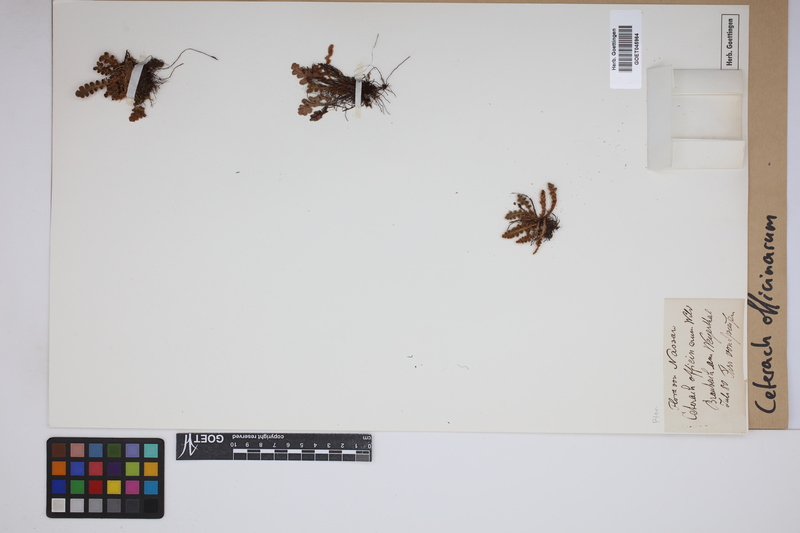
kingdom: Plantae
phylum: Tracheophyta
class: Polypodiopsida
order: Polypodiales
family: Aspleniaceae
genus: Asplenium
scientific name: Asplenium ceterach
